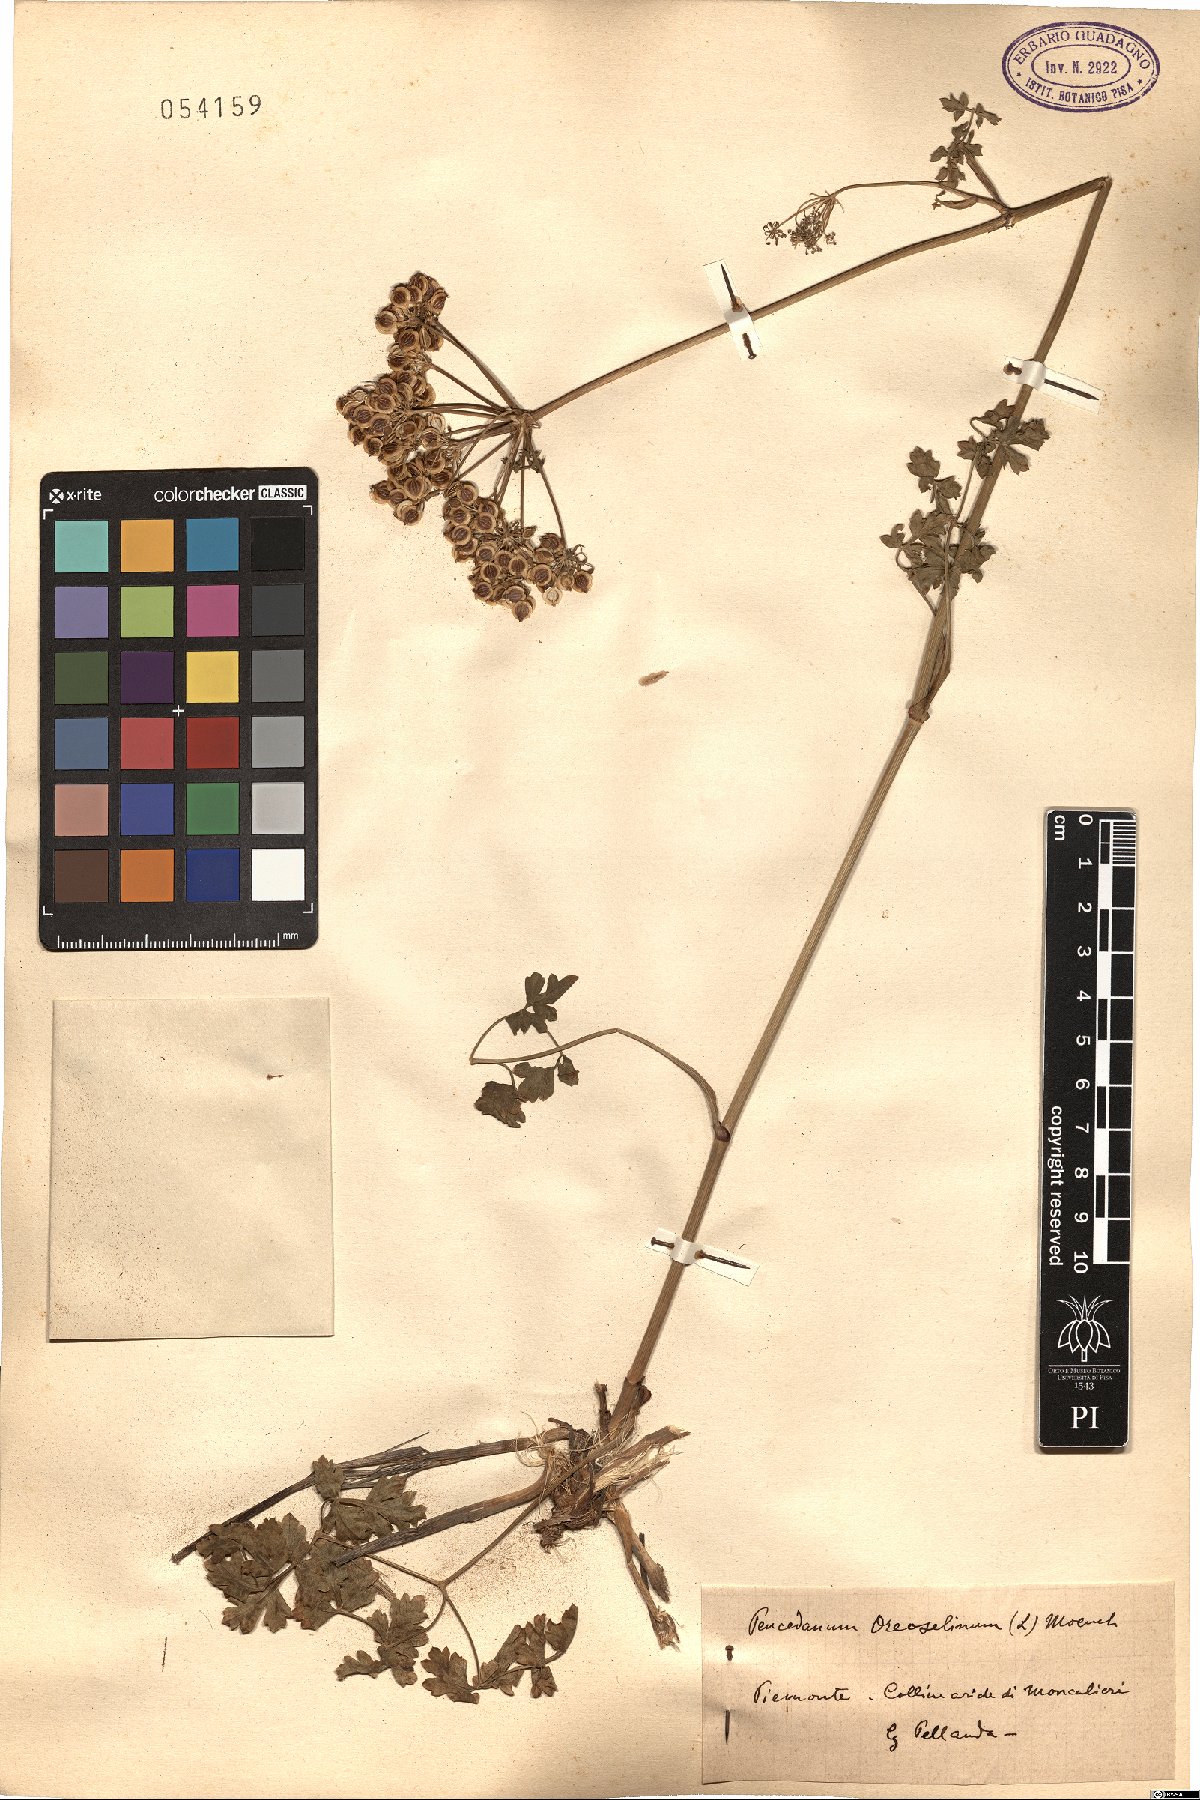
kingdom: Plantae
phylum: Tracheophyta
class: Magnoliopsida
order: Apiales
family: Apiaceae
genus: Oreoselinum
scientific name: Oreoselinum nigrum
